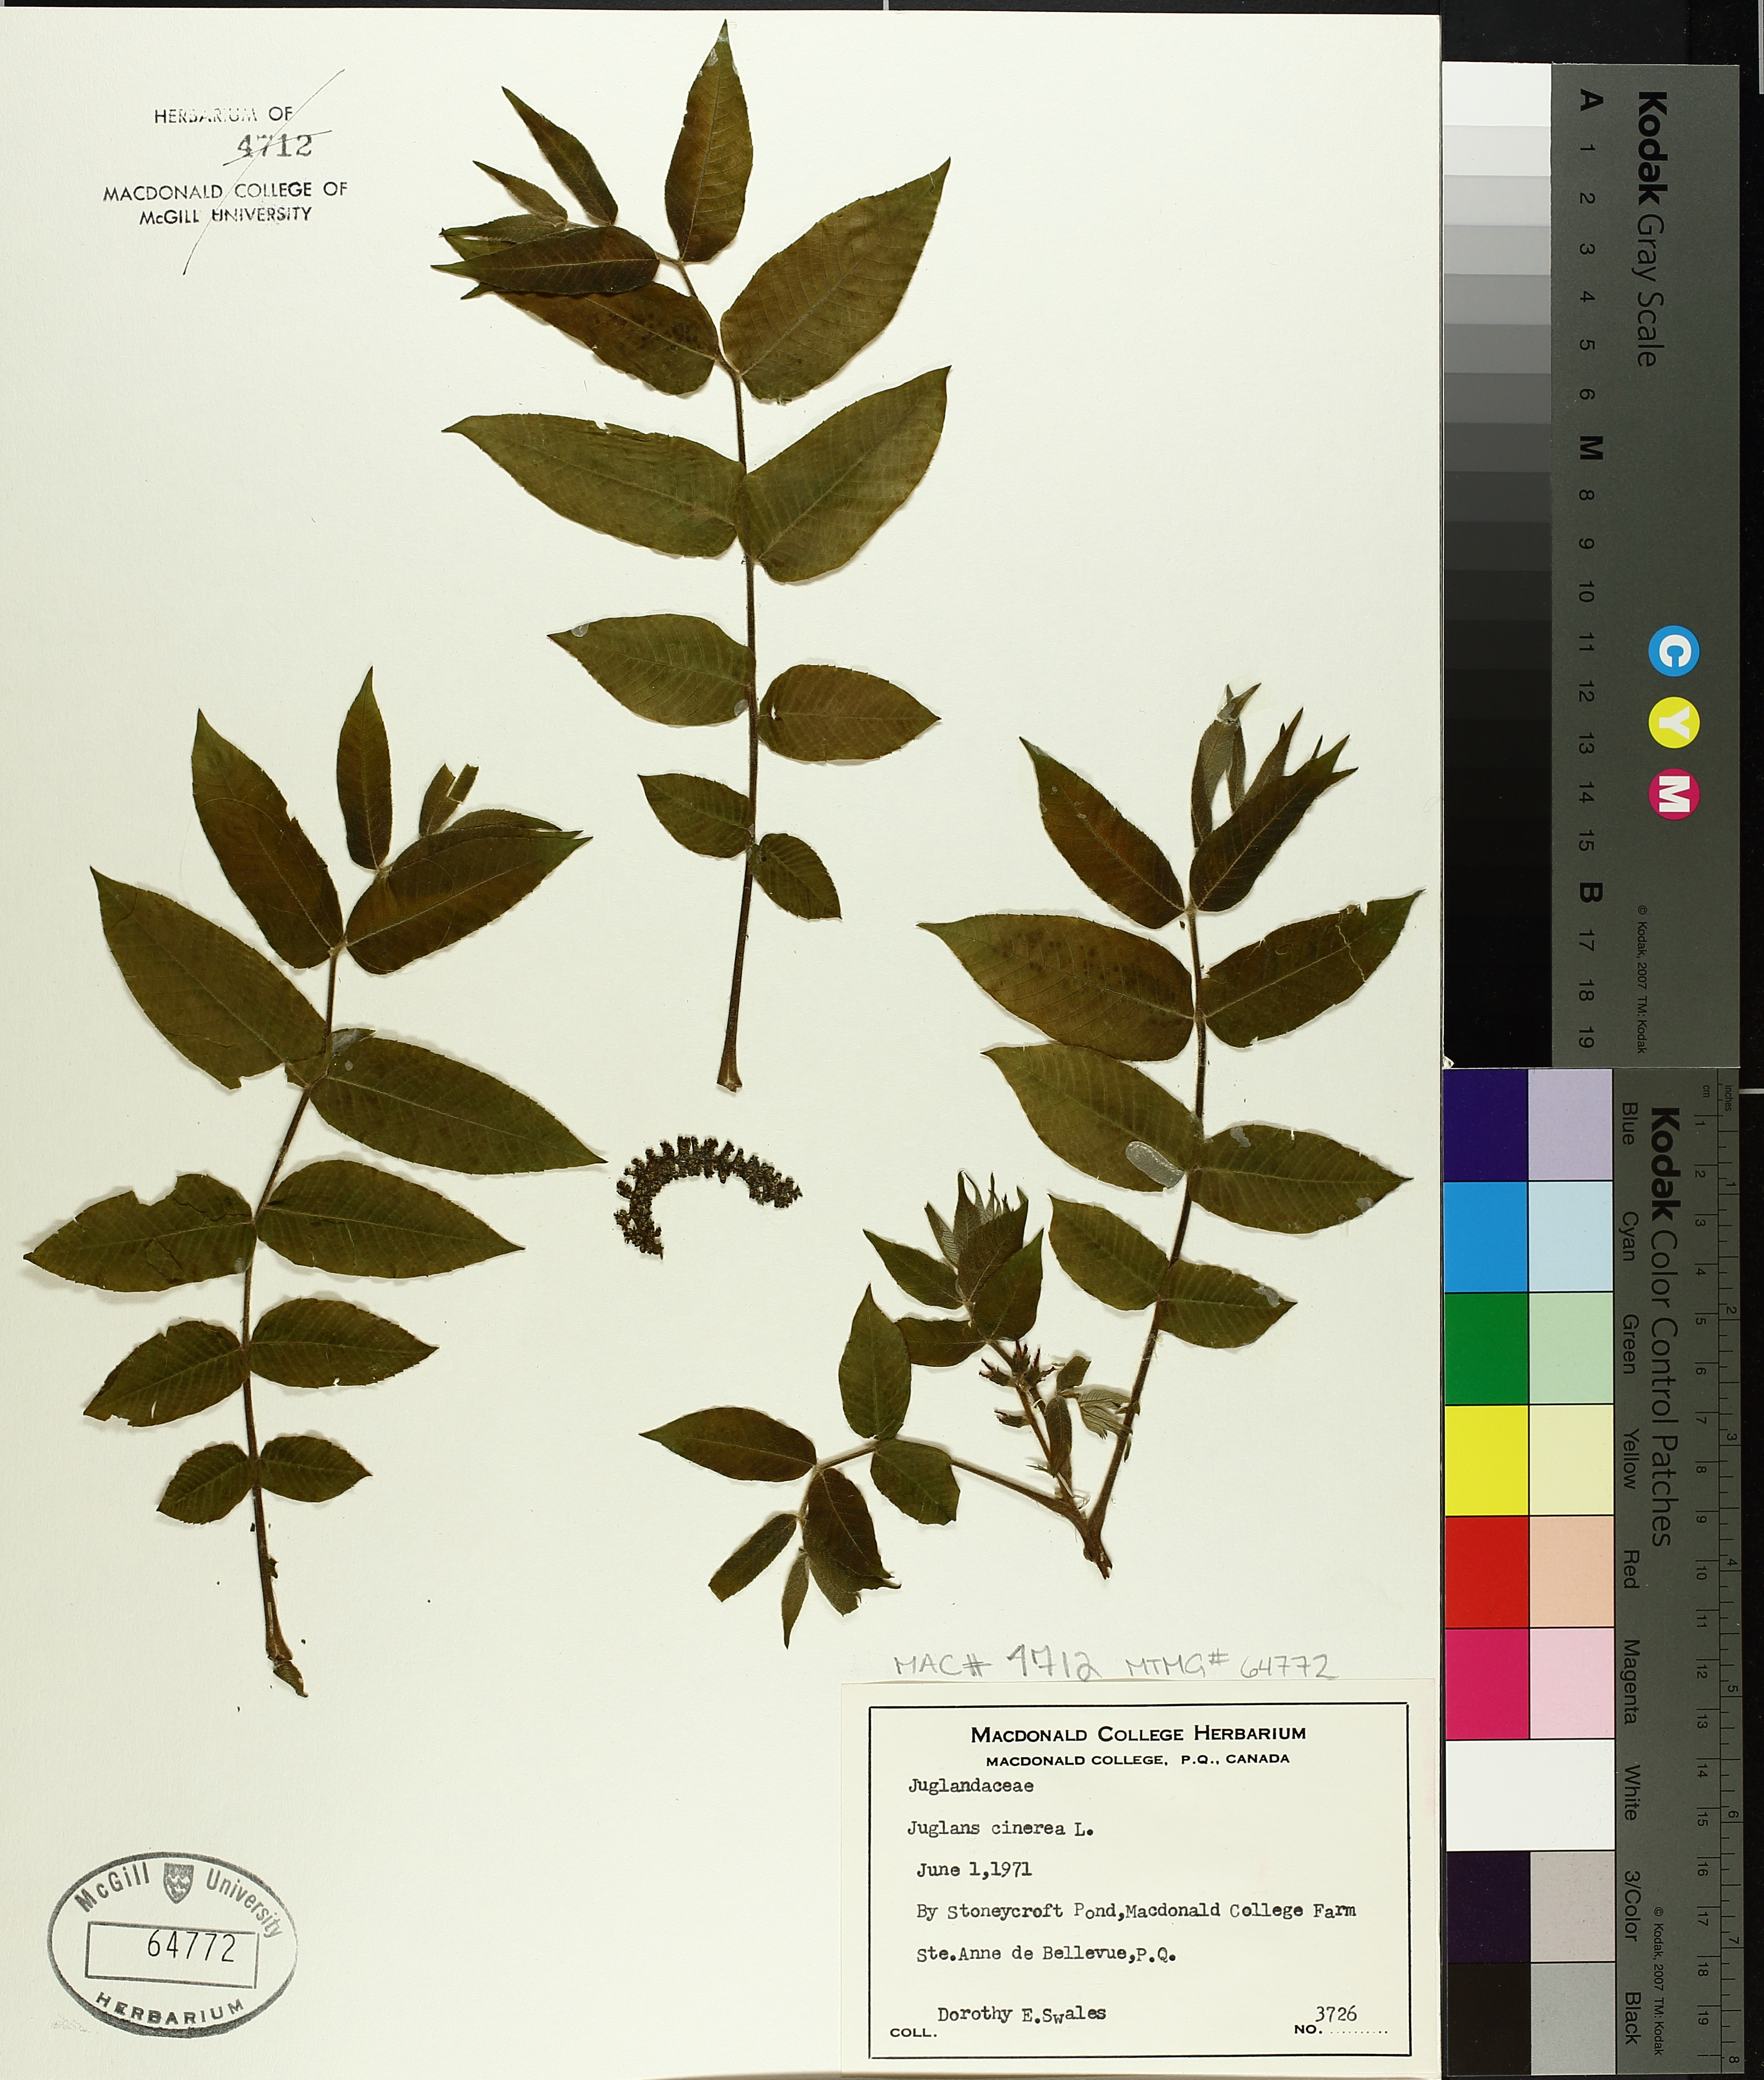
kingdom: Plantae
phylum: Tracheophyta
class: Magnoliopsida
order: Fagales
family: Juglandaceae
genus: Juglans
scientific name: Juglans cinerea
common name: Butternut
